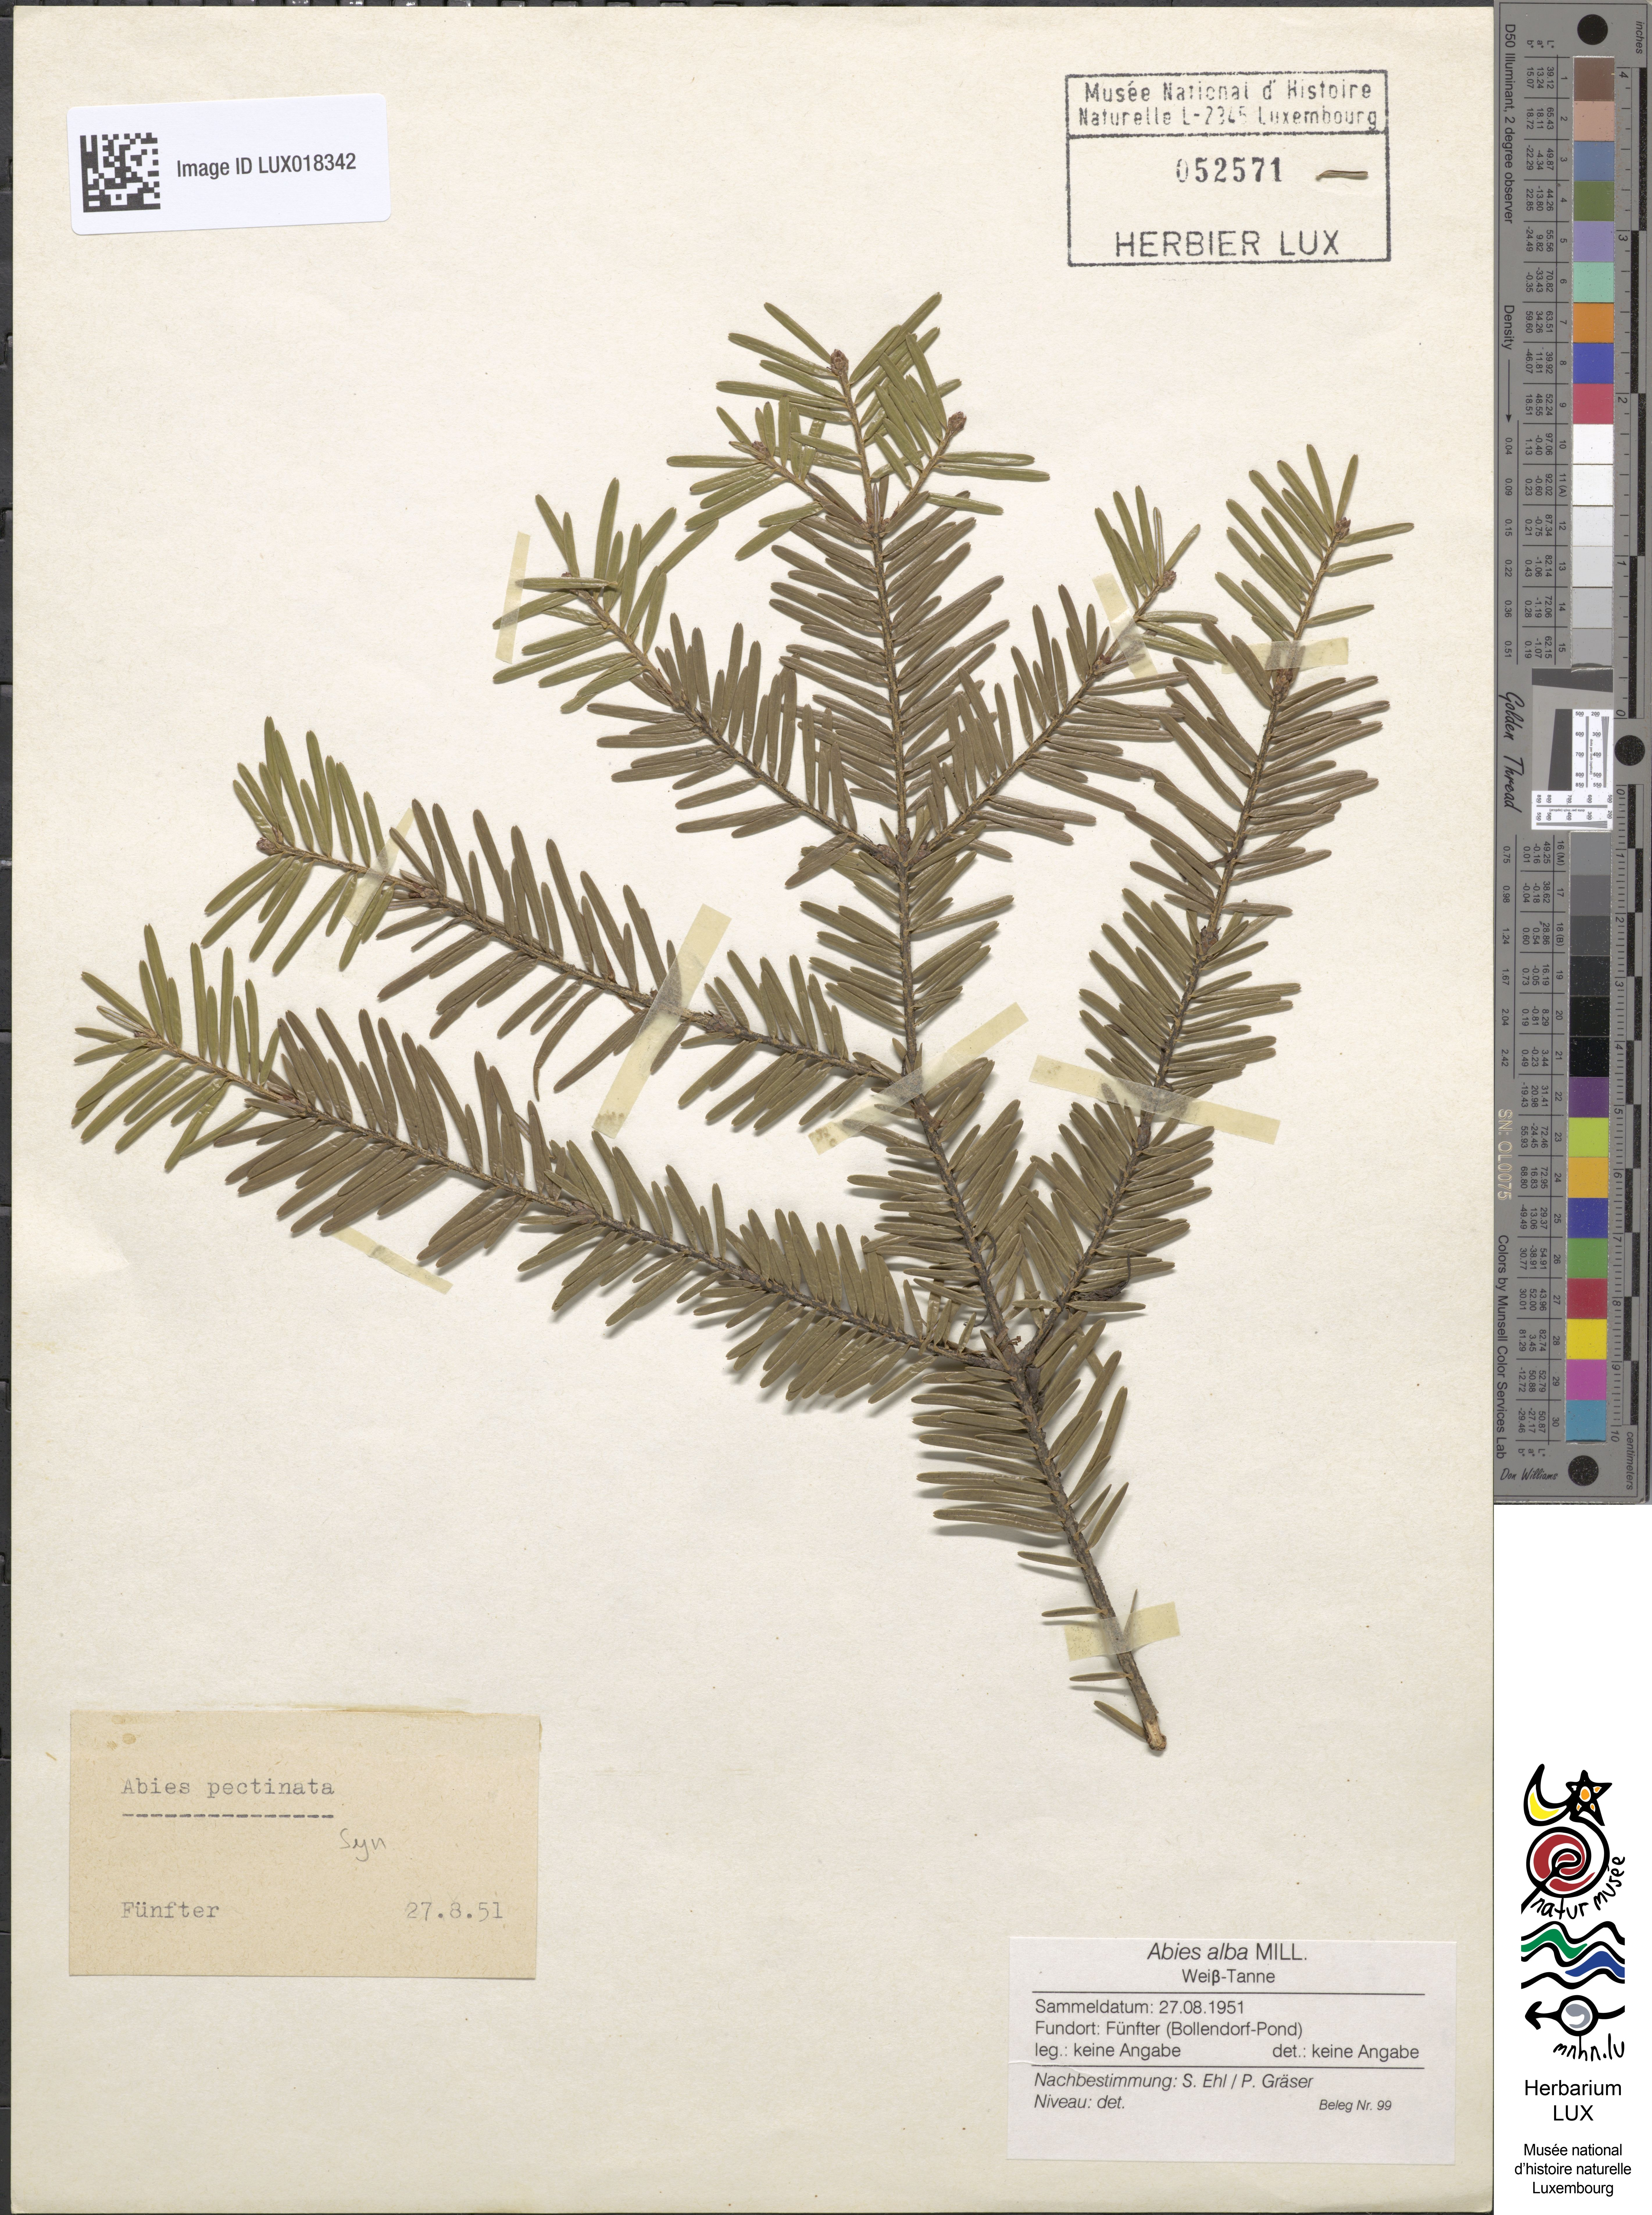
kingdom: Plantae
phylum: Tracheophyta
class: Pinopsida
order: Pinales
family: Pinaceae
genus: Abies
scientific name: Abies alba
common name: Silver fir
